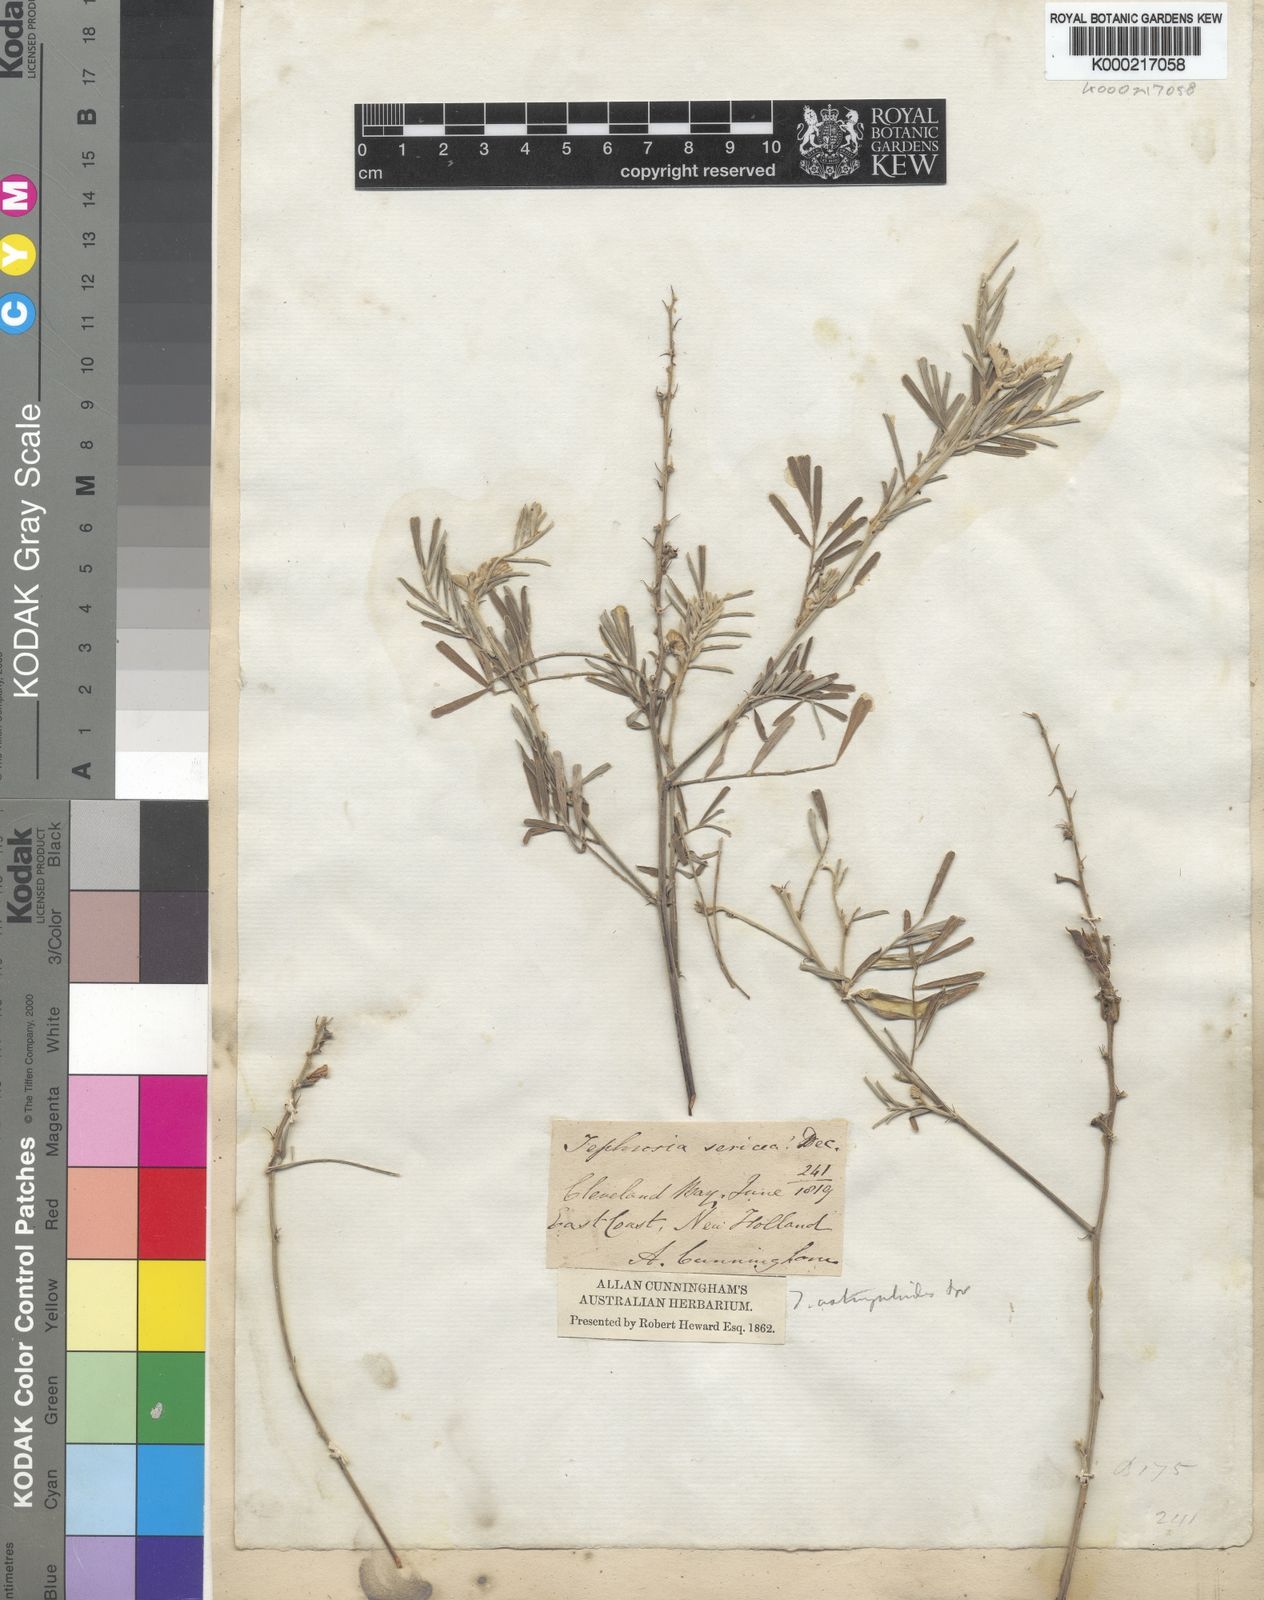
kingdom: Plantae
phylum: Tracheophyta
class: Magnoliopsida
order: Fabales
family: Fabaceae
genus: Tephrosia
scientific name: Tephrosia astragaloides
